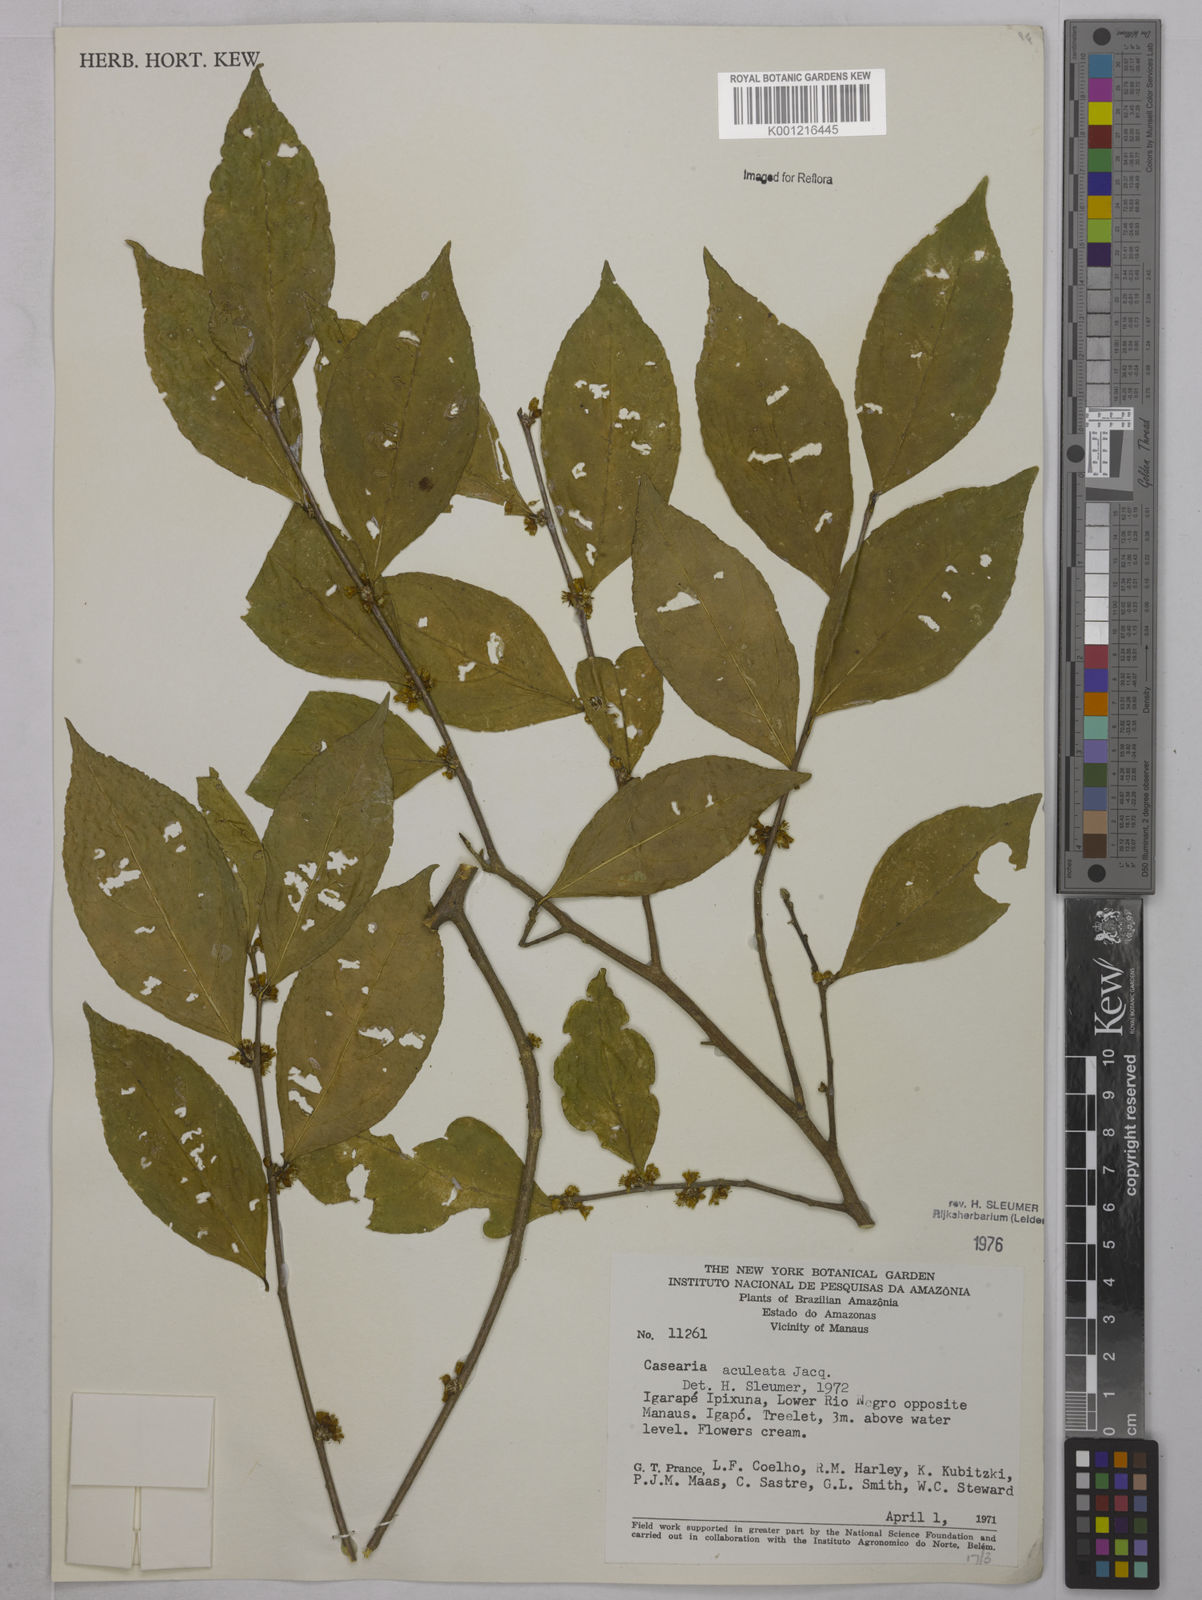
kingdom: Plantae
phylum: Tracheophyta
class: Magnoliopsida
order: Malpighiales
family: Salicaceae
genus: Casearia
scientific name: Casearia aculeata
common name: Cockspur
